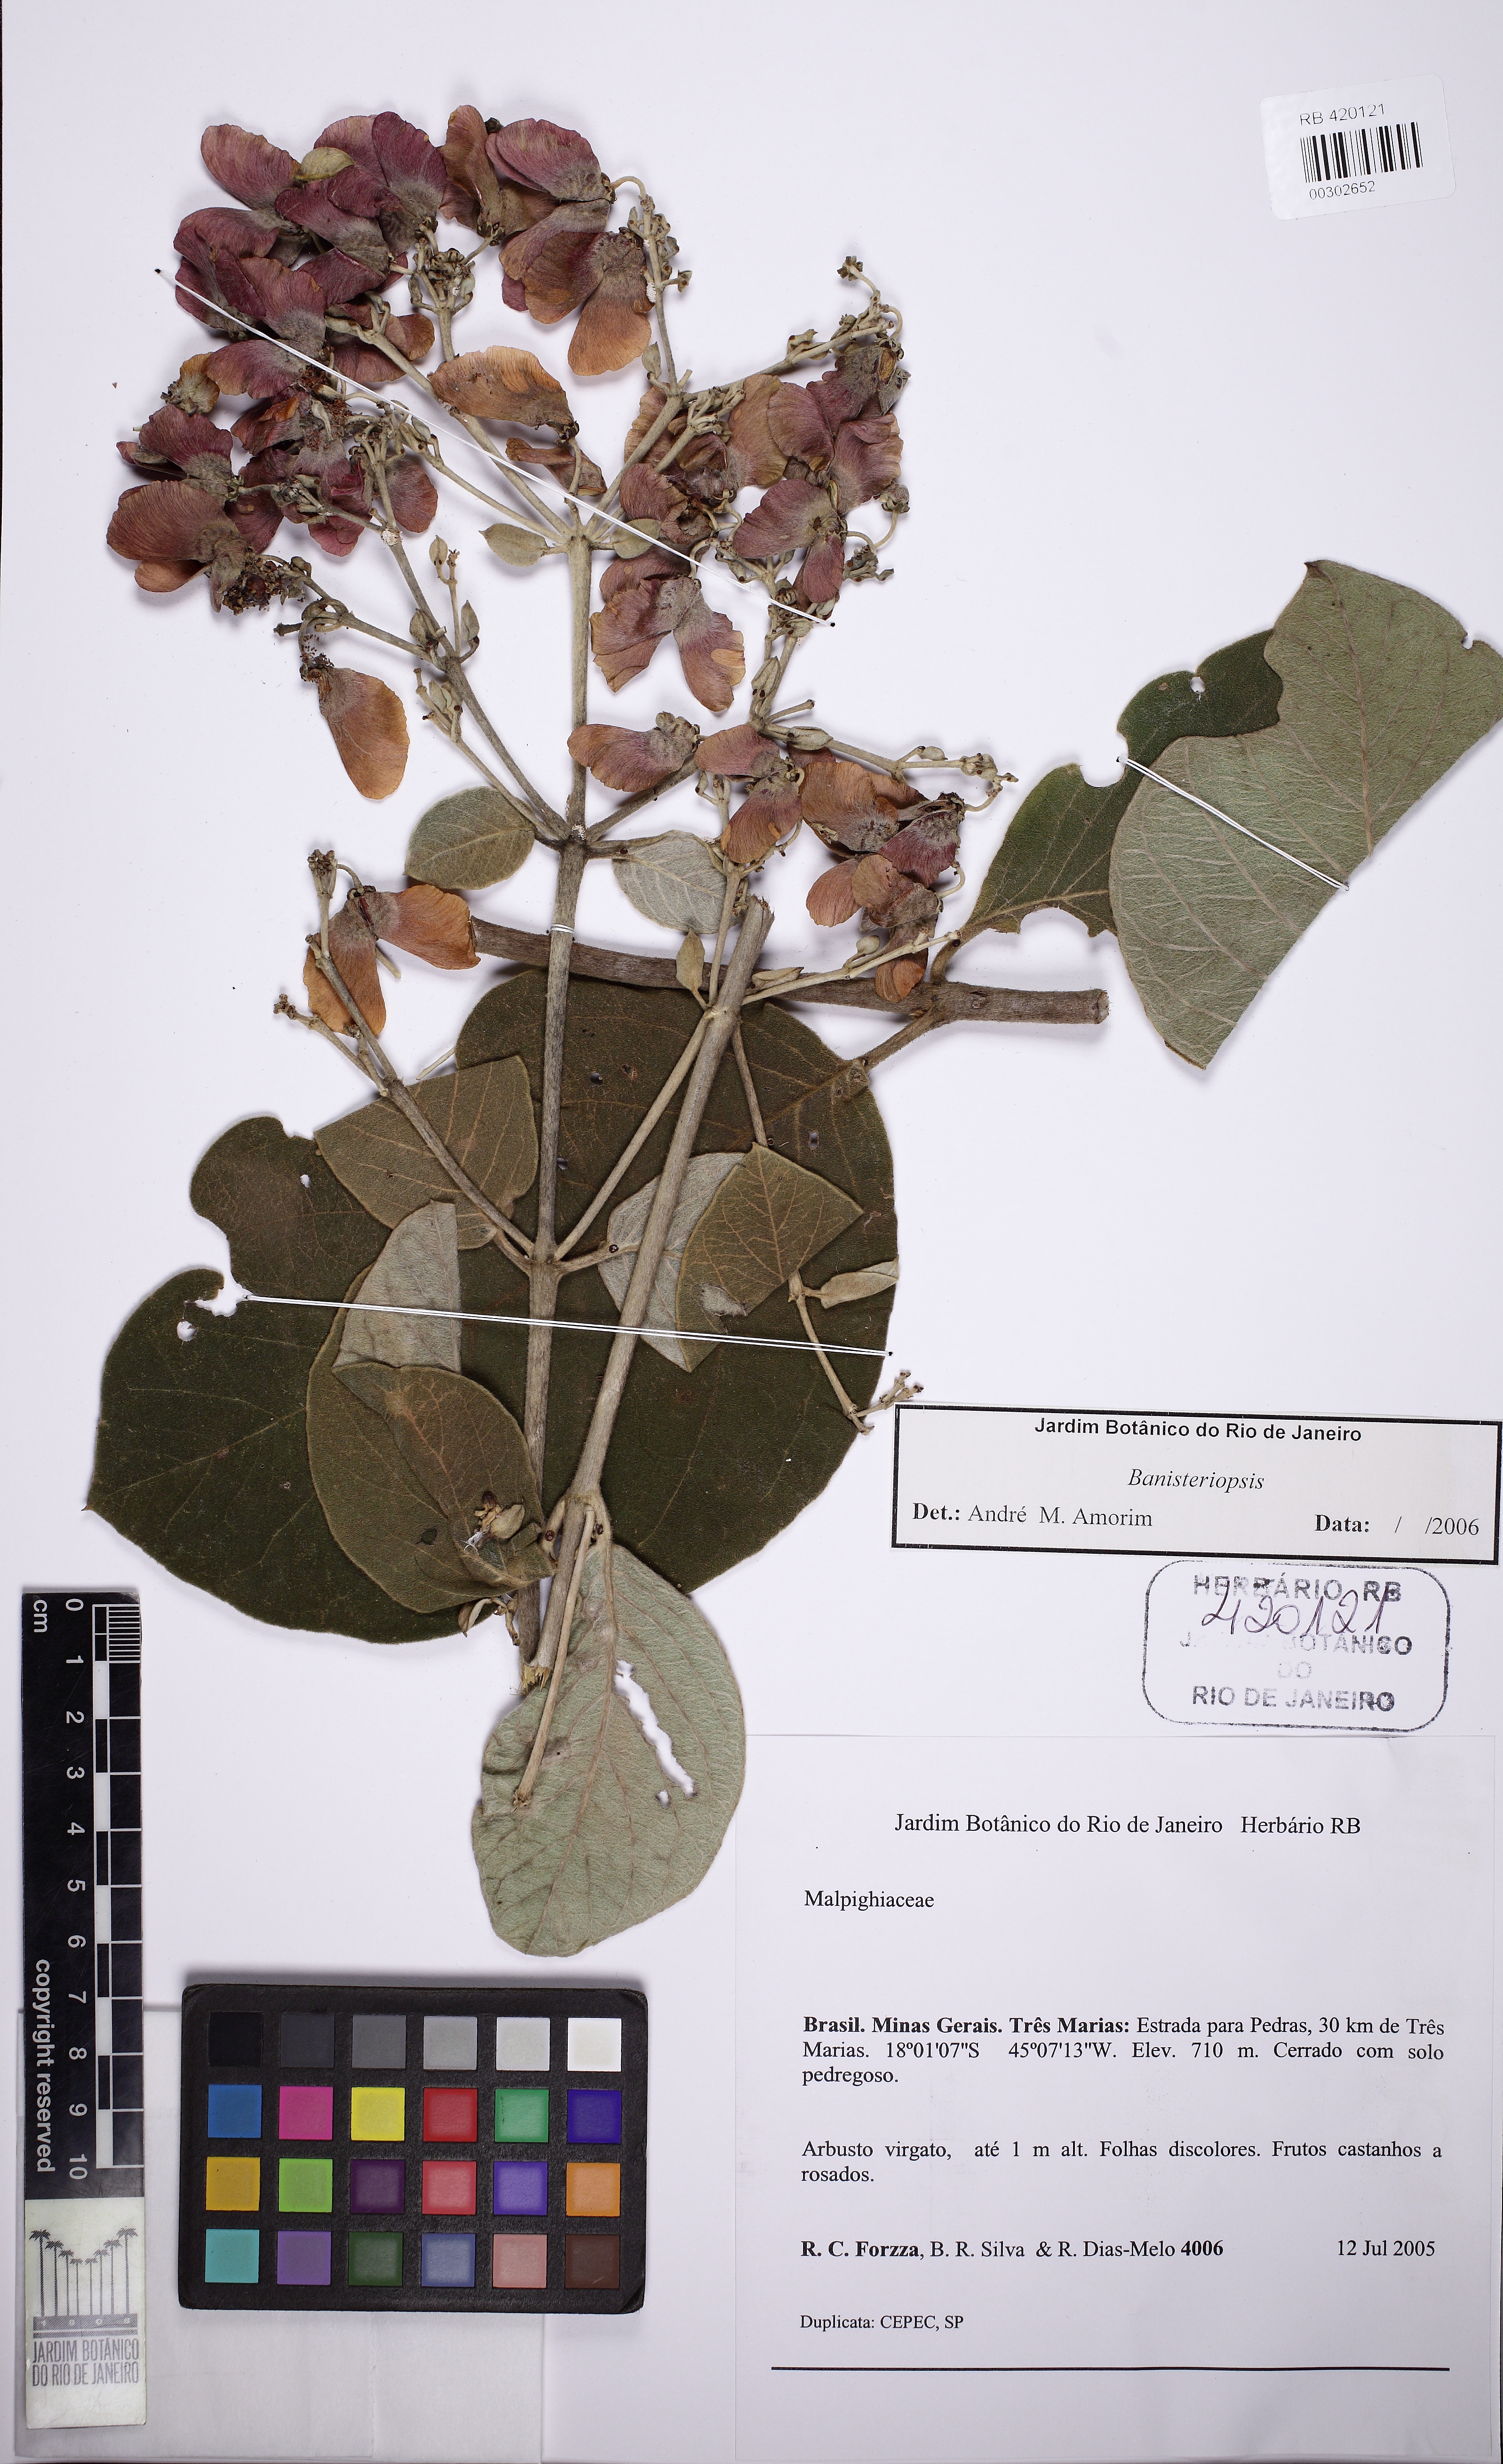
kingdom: Plantae
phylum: Tracheophyta
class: Magnoliopsida
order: Malpighiales
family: Malpighiaceae
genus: Banisteriopsis
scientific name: Banisteriopsis megaphylla
